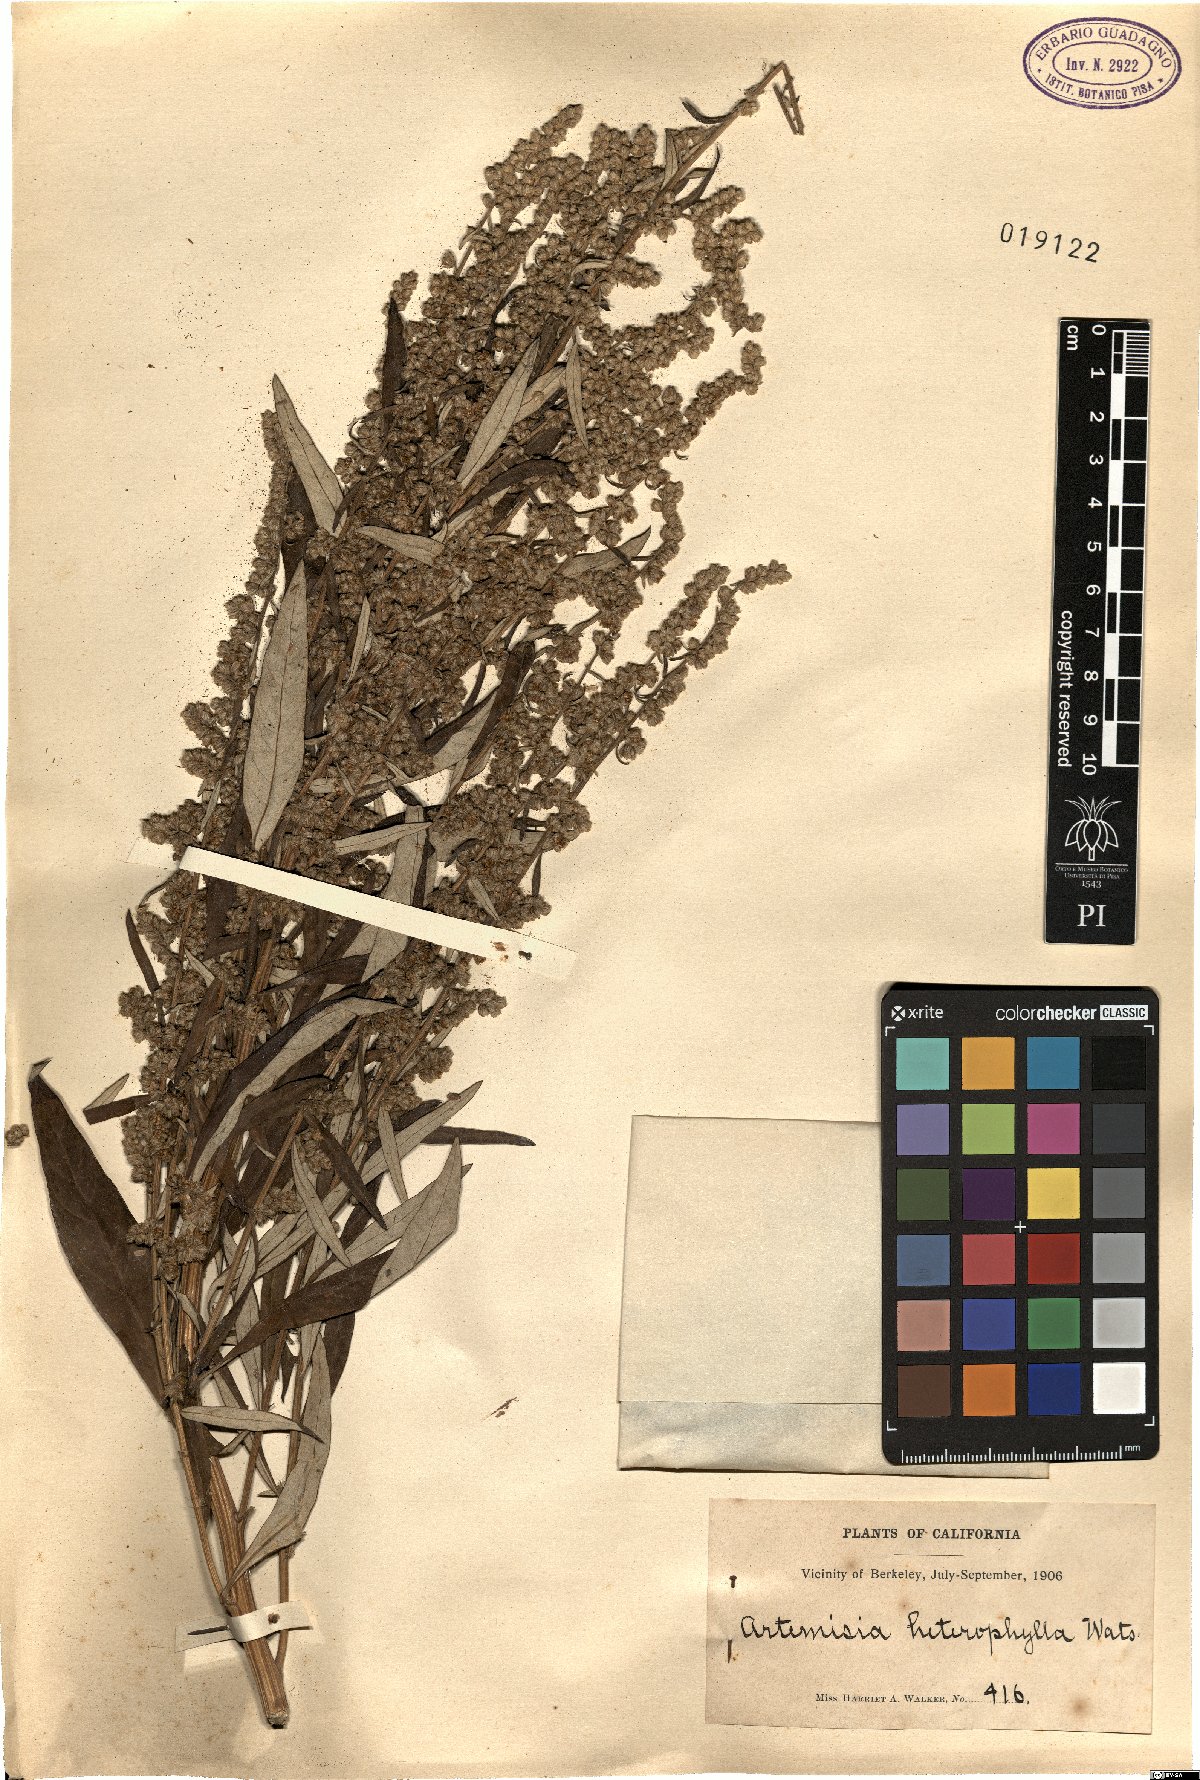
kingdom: Plantae
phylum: Tracheophyta
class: Magnoliopsida
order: Asterales
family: Asteraceae
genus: Artemisia
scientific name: Artemisia furcata
